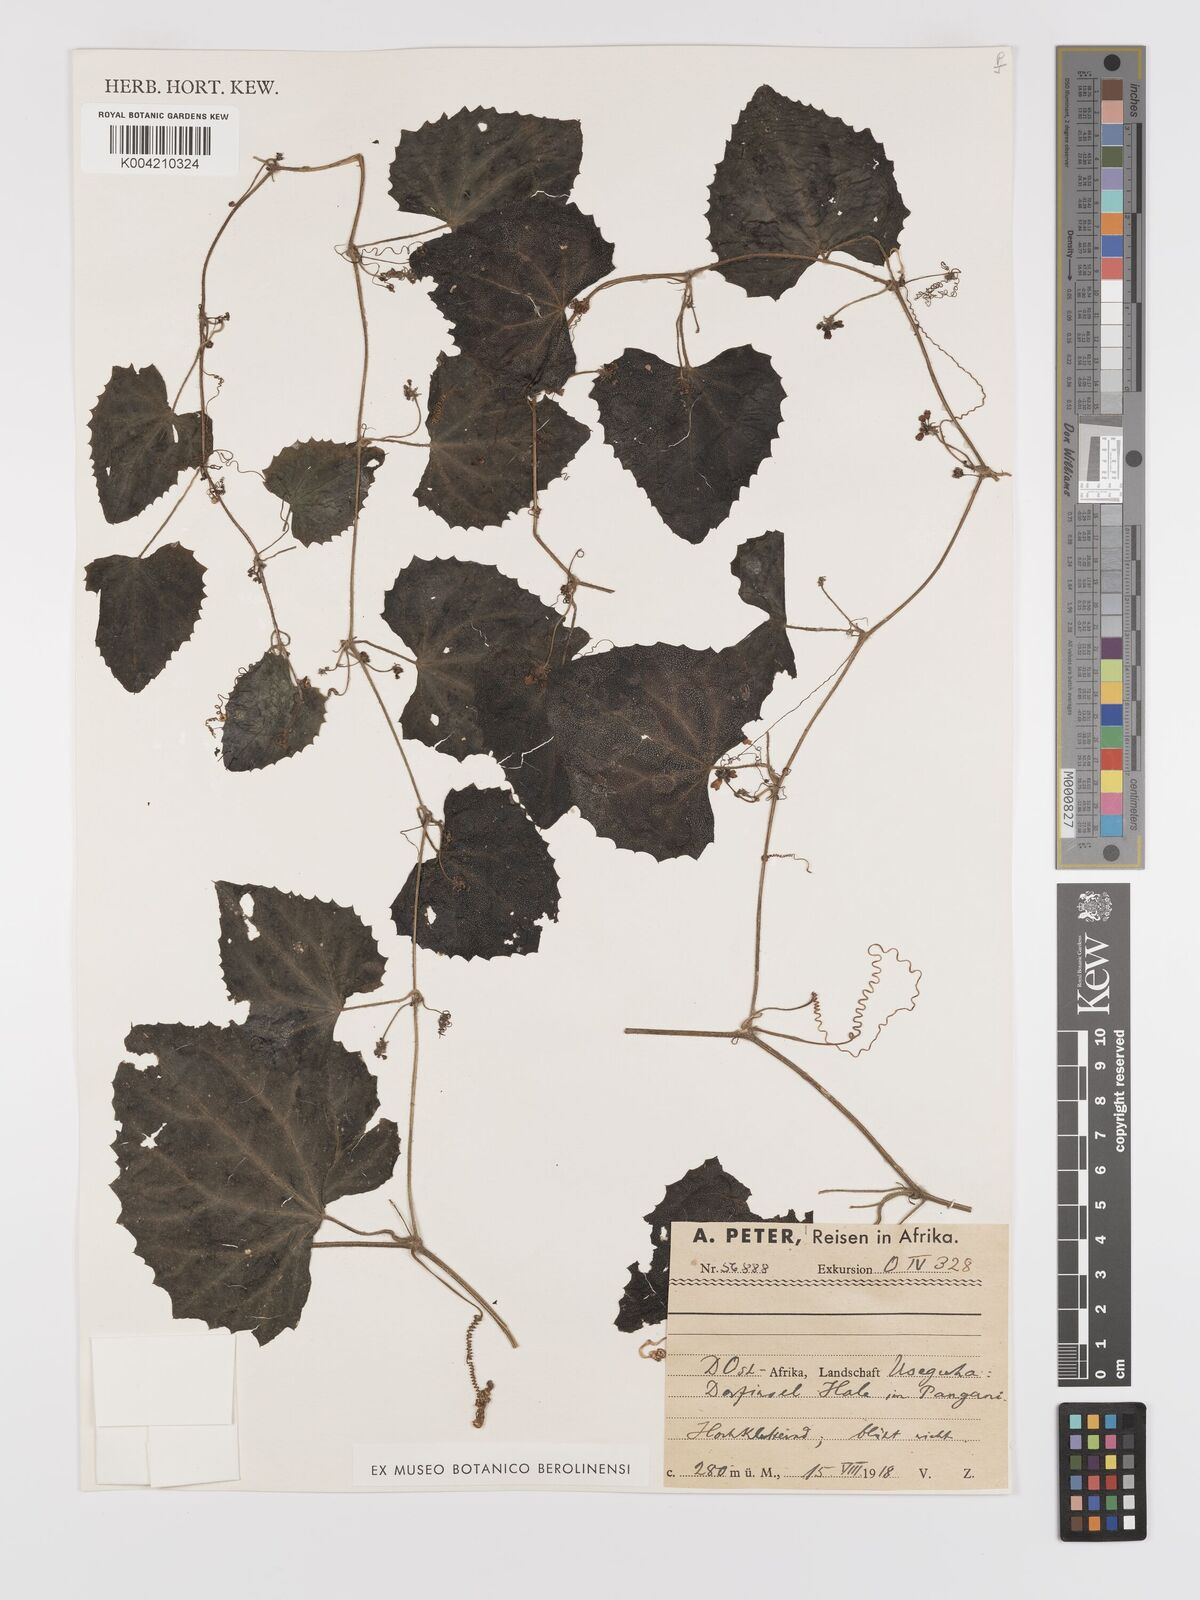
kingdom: Plantae
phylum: Tracheophyta
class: Magnoliopsida
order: Cucurbitales
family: Cucurbitaceae
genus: Zehneria
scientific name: Zehneria scabra
